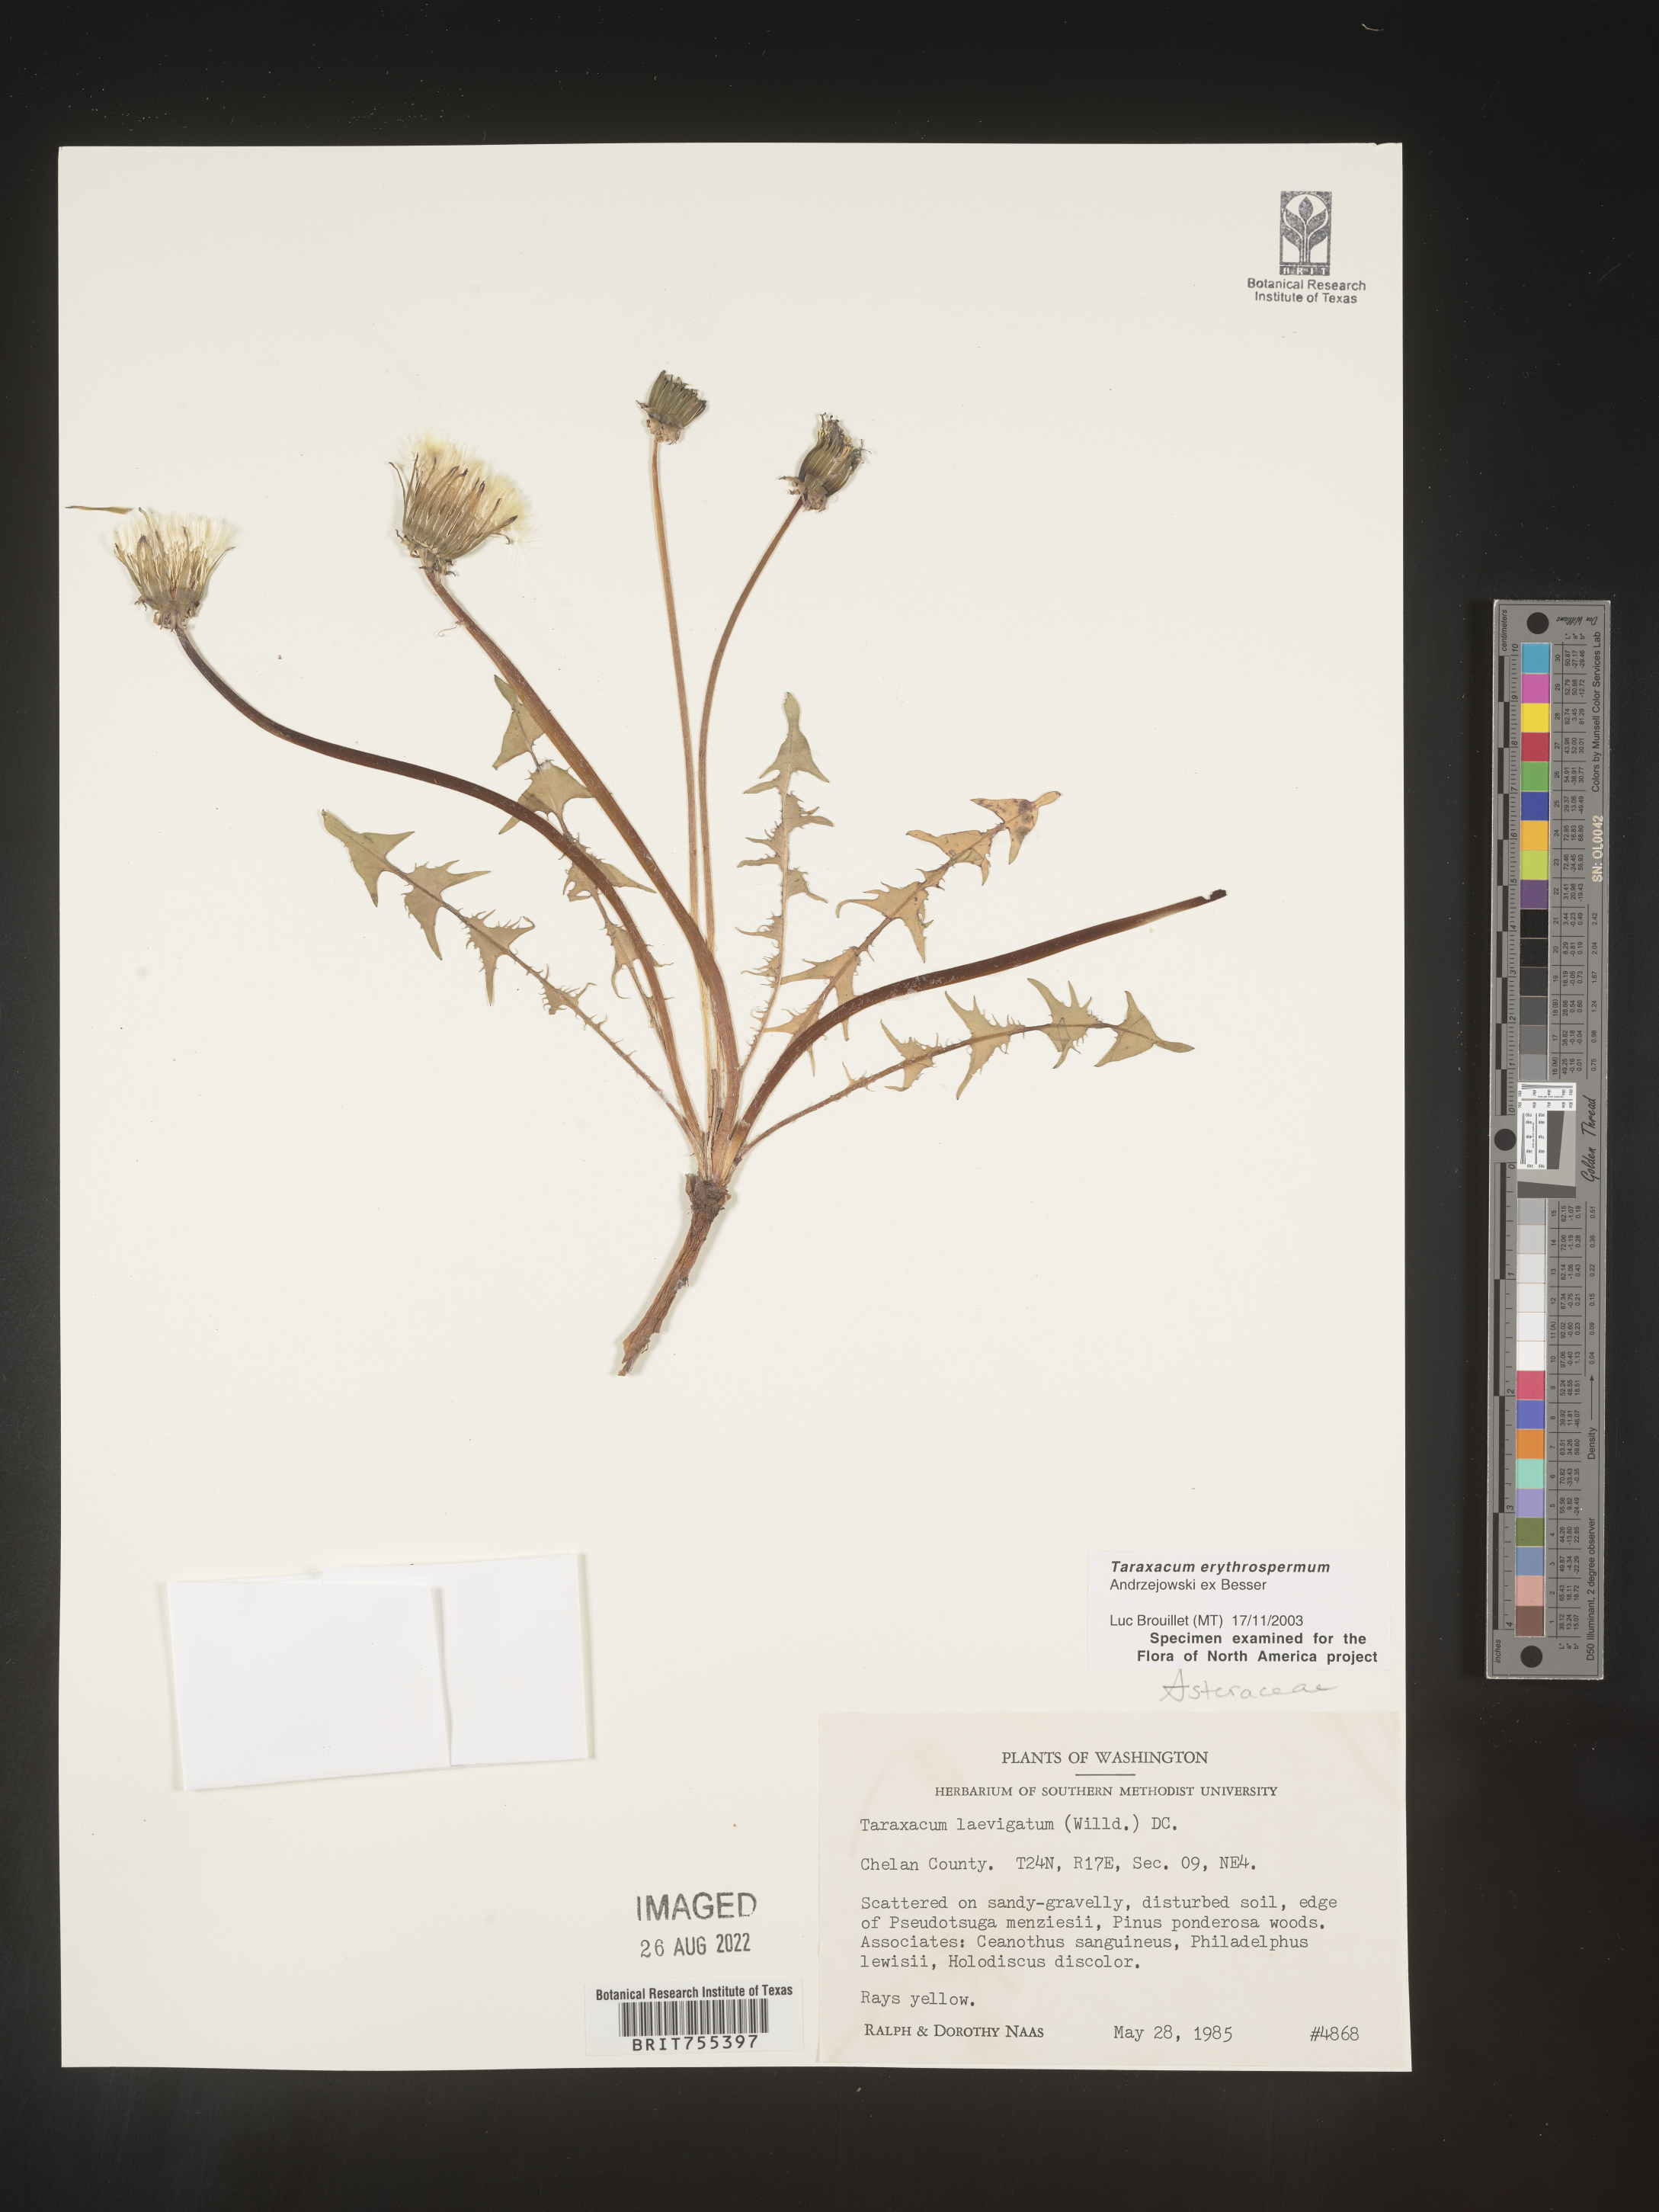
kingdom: Plantae
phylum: Tracheophyta
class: Magnoliopsida
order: Asterales
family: Asteraceae
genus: Taraxacum
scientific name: Taraxacum erythrospermum
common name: Rock dandelion
